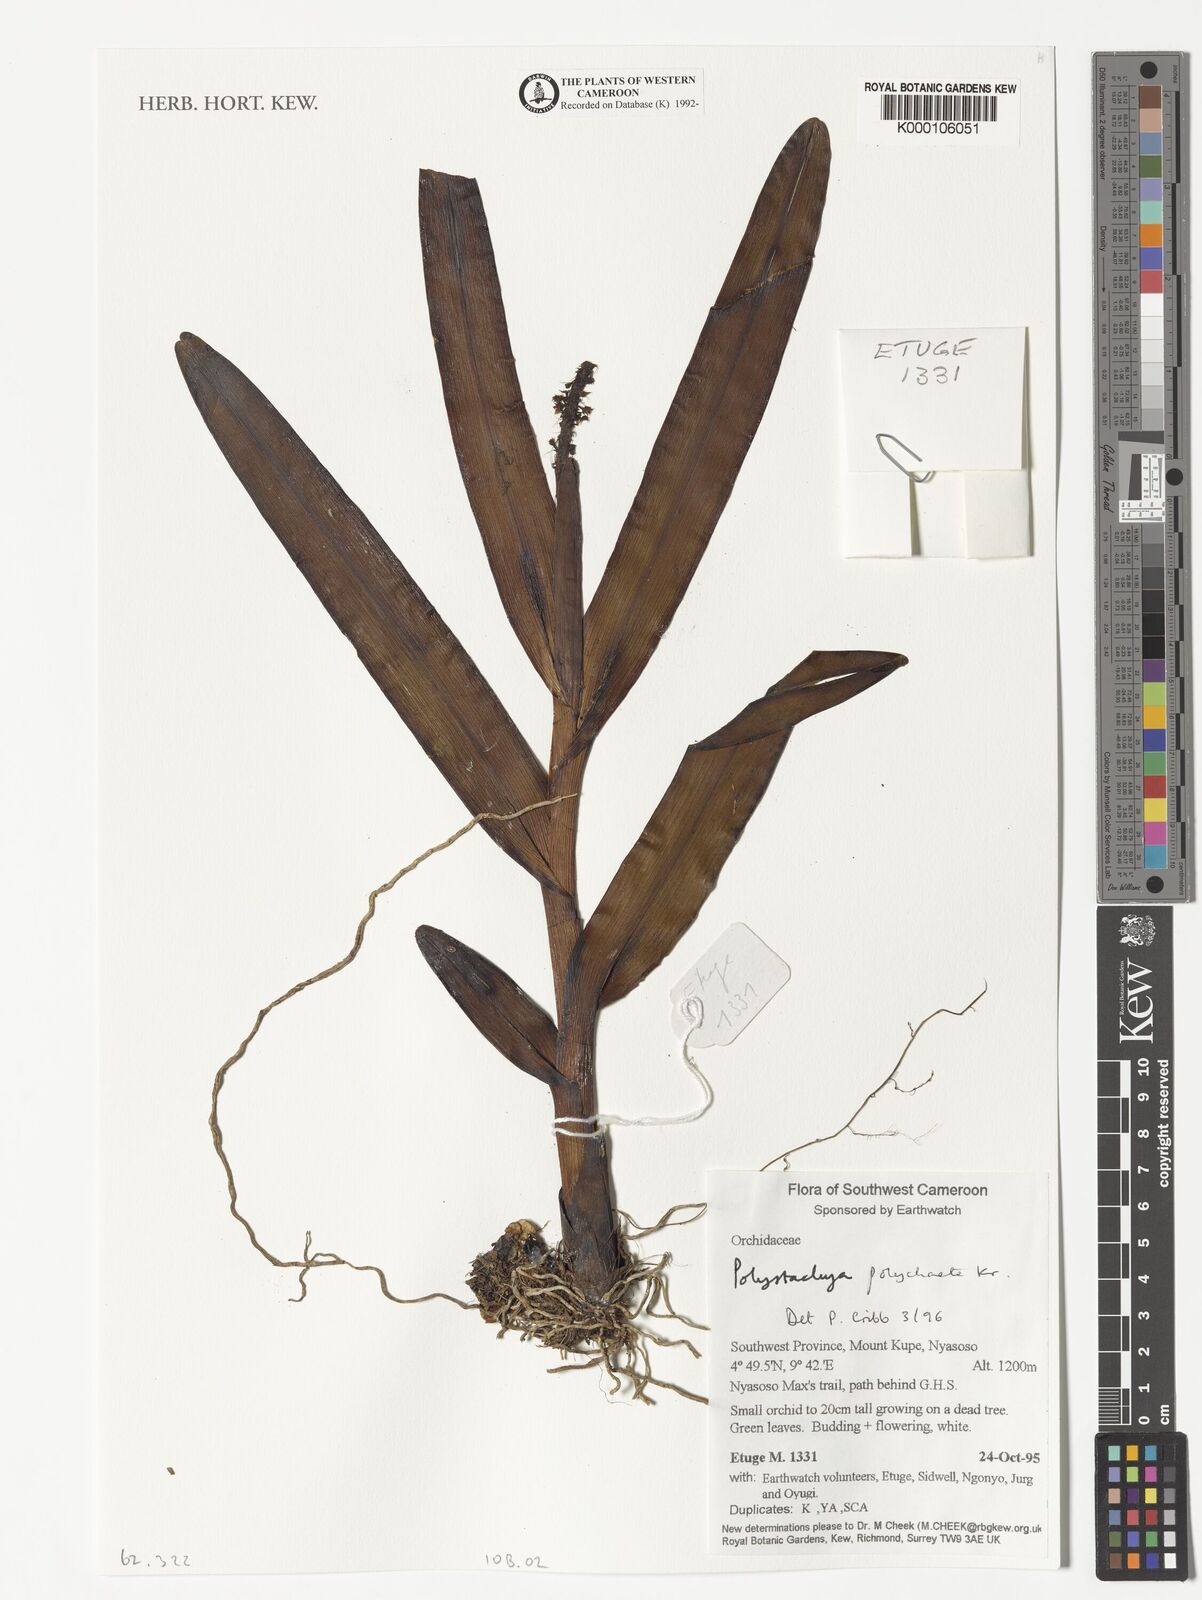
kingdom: Plantae
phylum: Tracheophyta
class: Liliopsida
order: Asparagales
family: Orchidaceae
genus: Polystachya
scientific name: Polystachya polychaete
